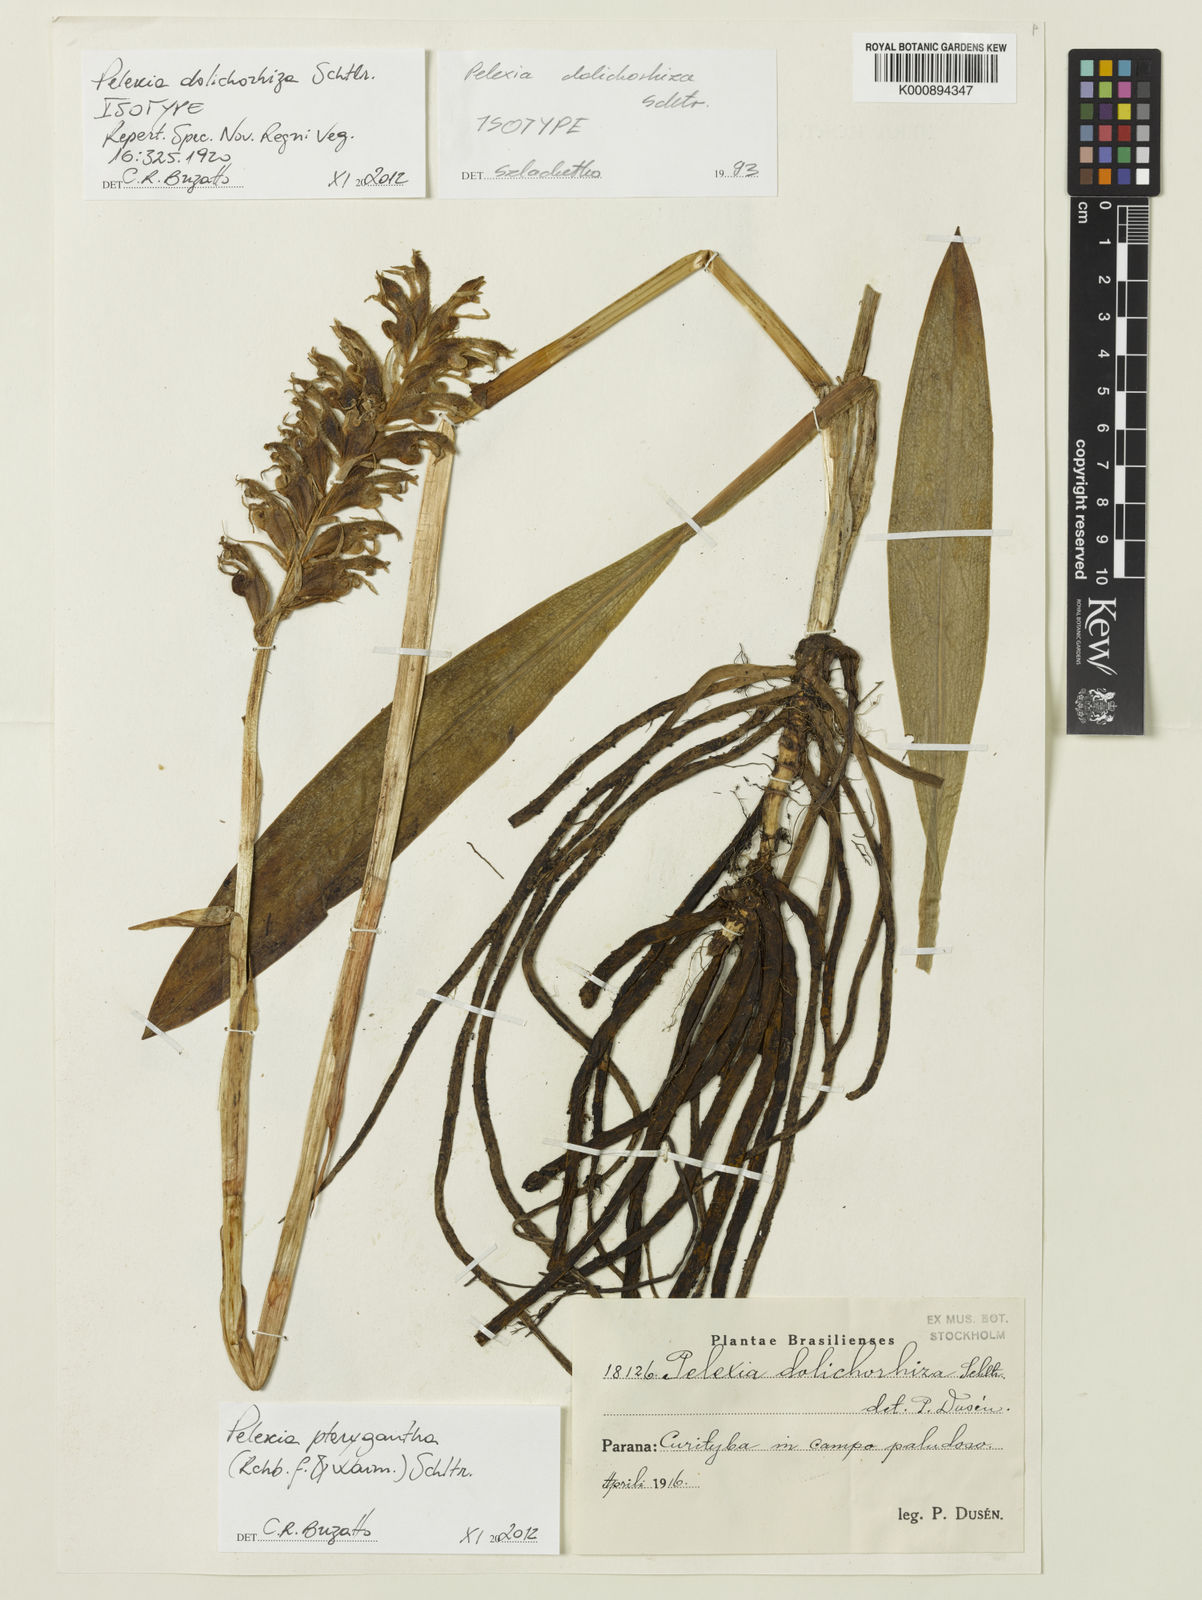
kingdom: Plantae
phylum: Tracheophyta
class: Liliopsida
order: Asparagales
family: Orchidaceae
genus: Pelexia
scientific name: Pelexia pterygantha
